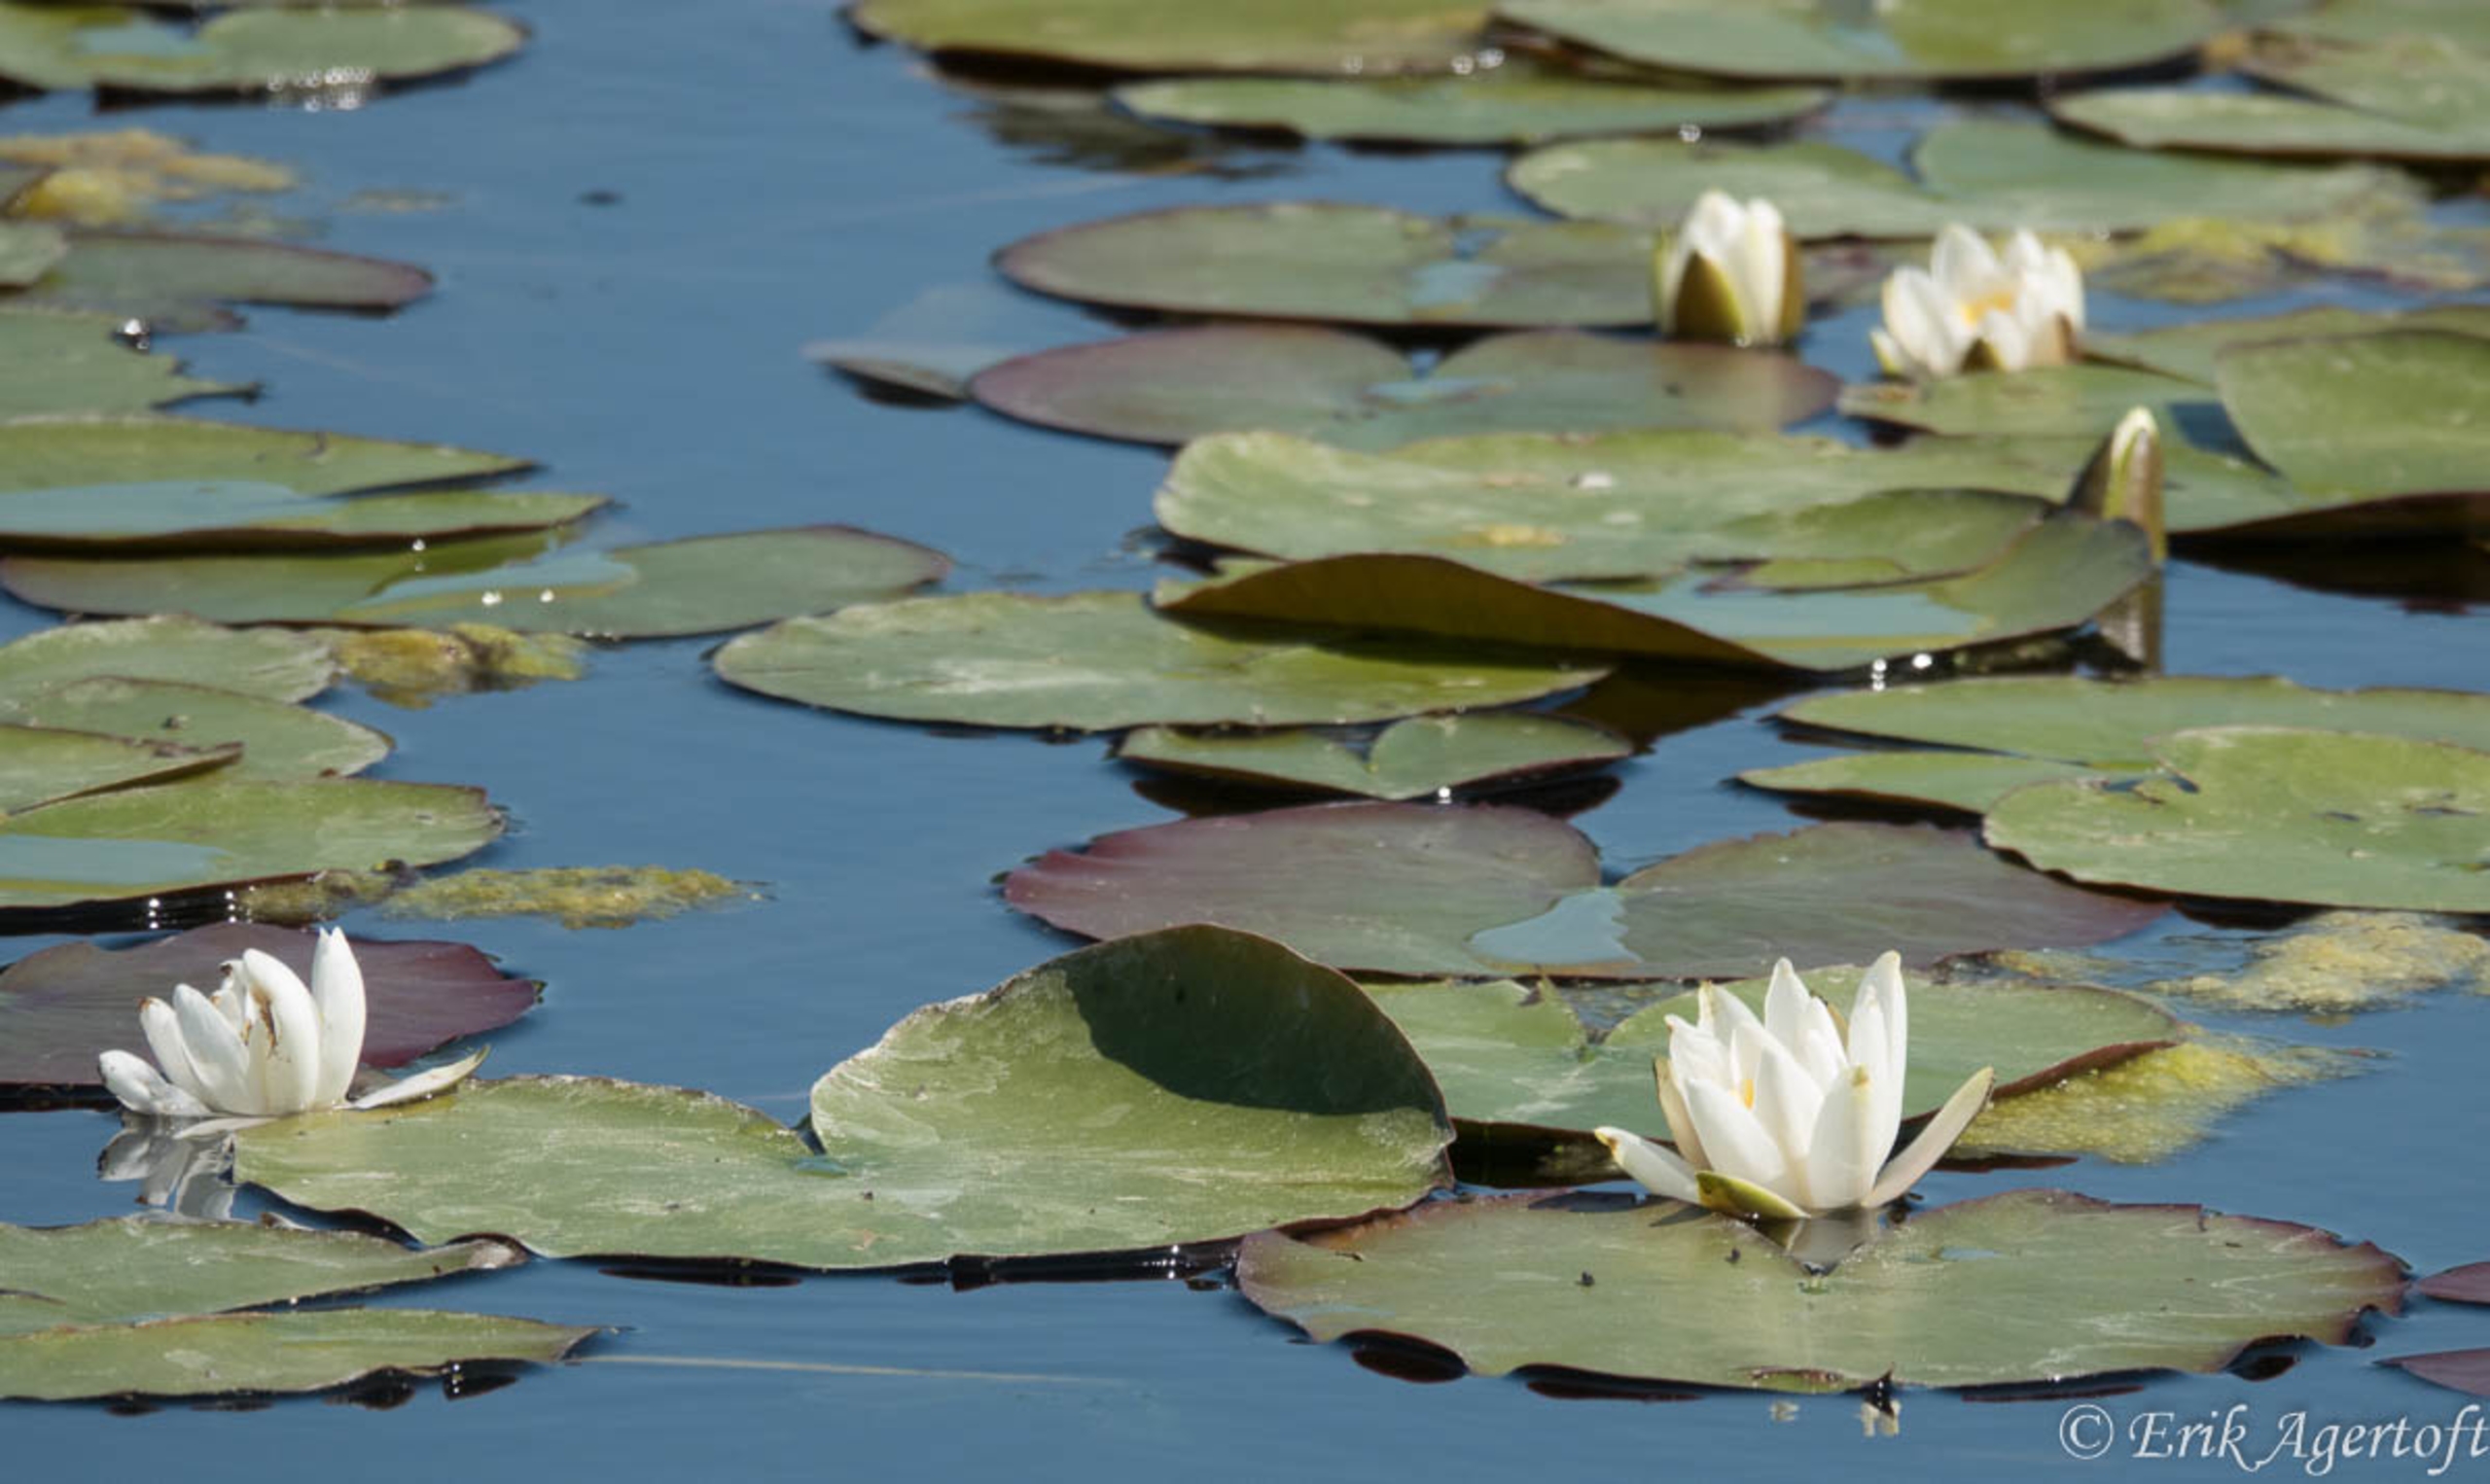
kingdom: Plantae
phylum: Tracheophyta
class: Magnoliopsida
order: Nymphaeales
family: Nymphaeaceae
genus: Nymphaea
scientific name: Nymphaea alba
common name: Hvid åkande
